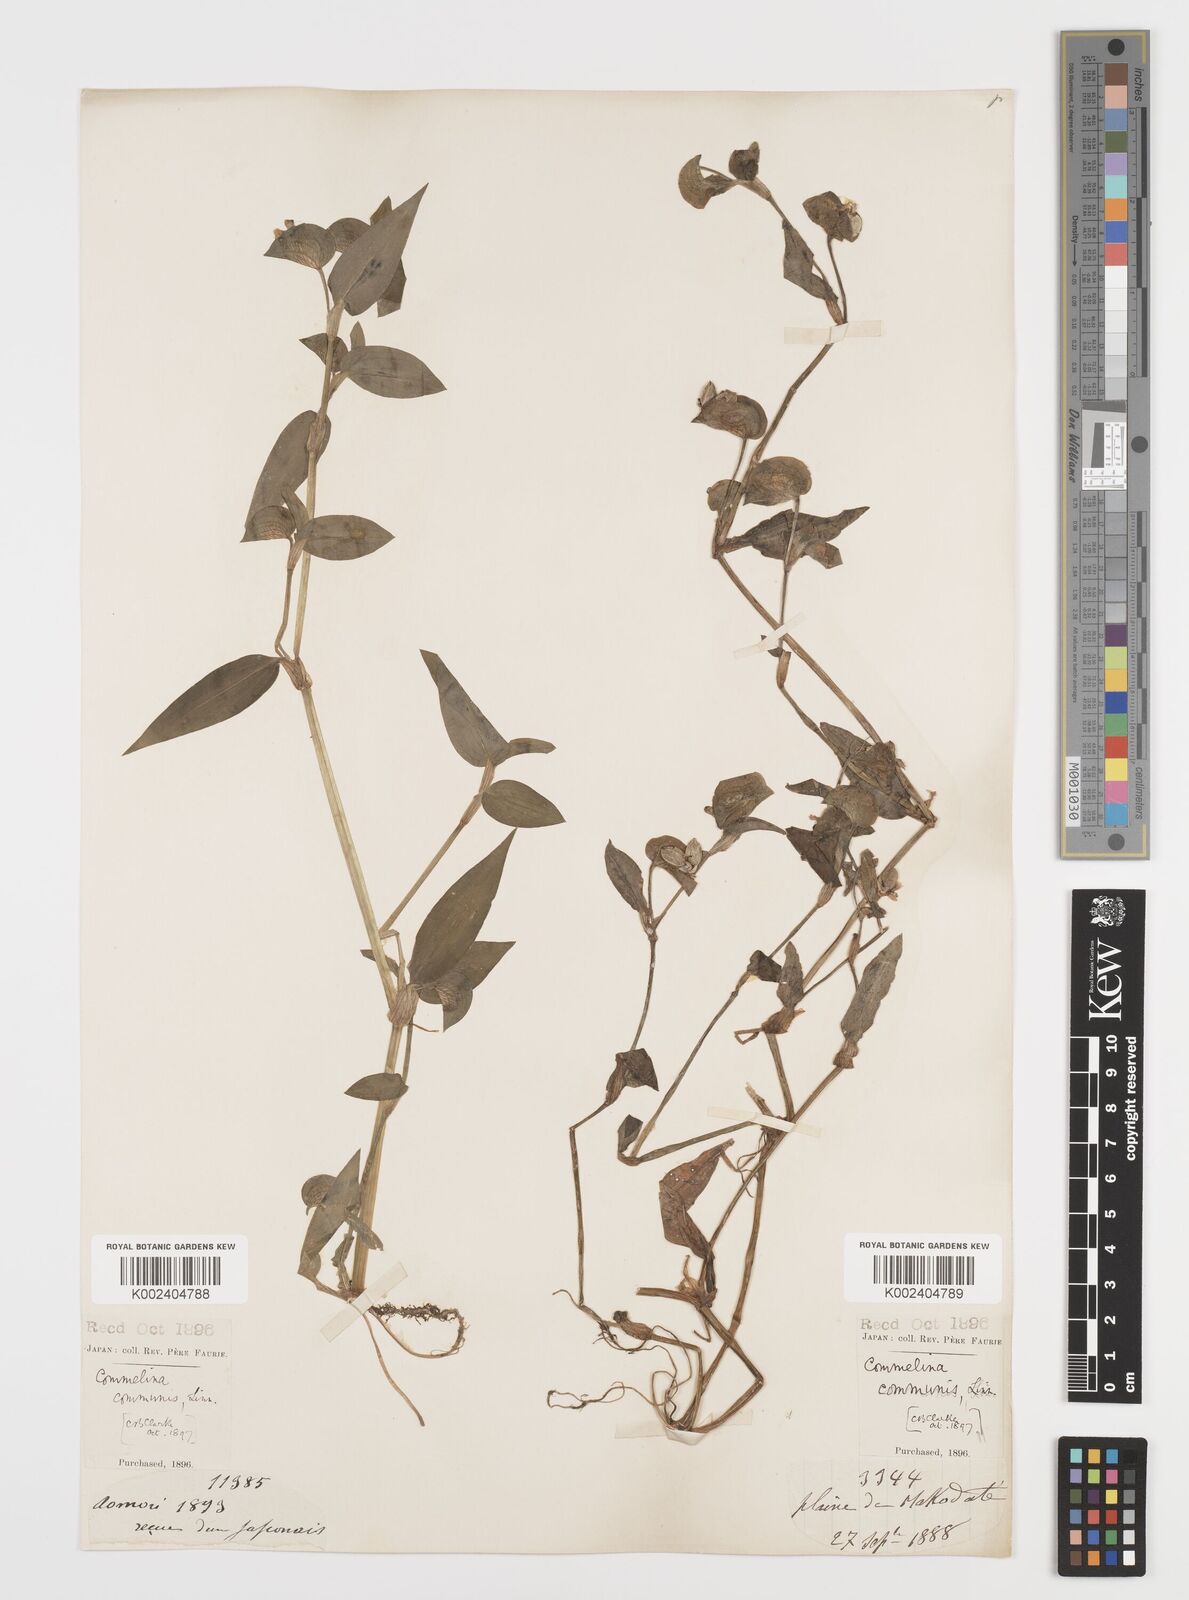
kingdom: Plantae
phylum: Tracheophyta
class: Liliopsida
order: Commelinales
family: Commelinaceae
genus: Commelina
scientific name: Commelina communis
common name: Asiatic dayflower
